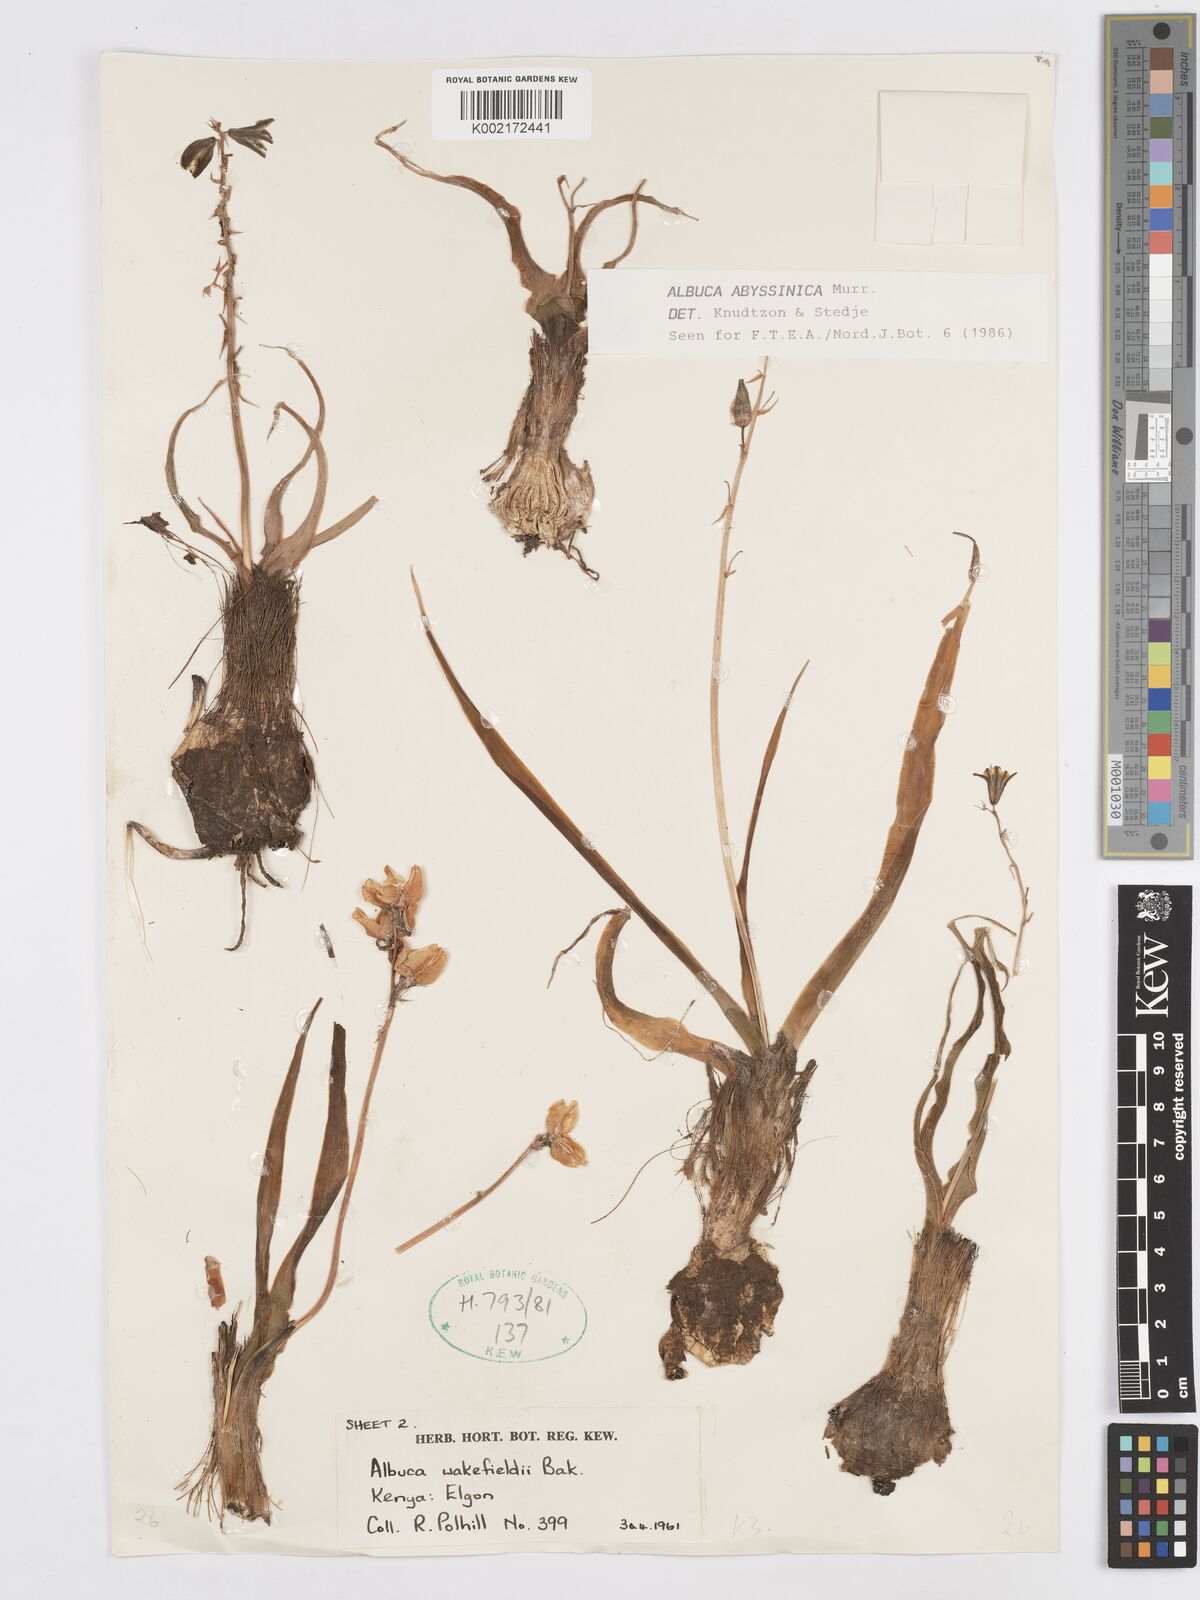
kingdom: Plantae
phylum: Tracheophyta
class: Liliopsida
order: Asparagales
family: Asparagaceae
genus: Albuca
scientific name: Albuca abyssinica
